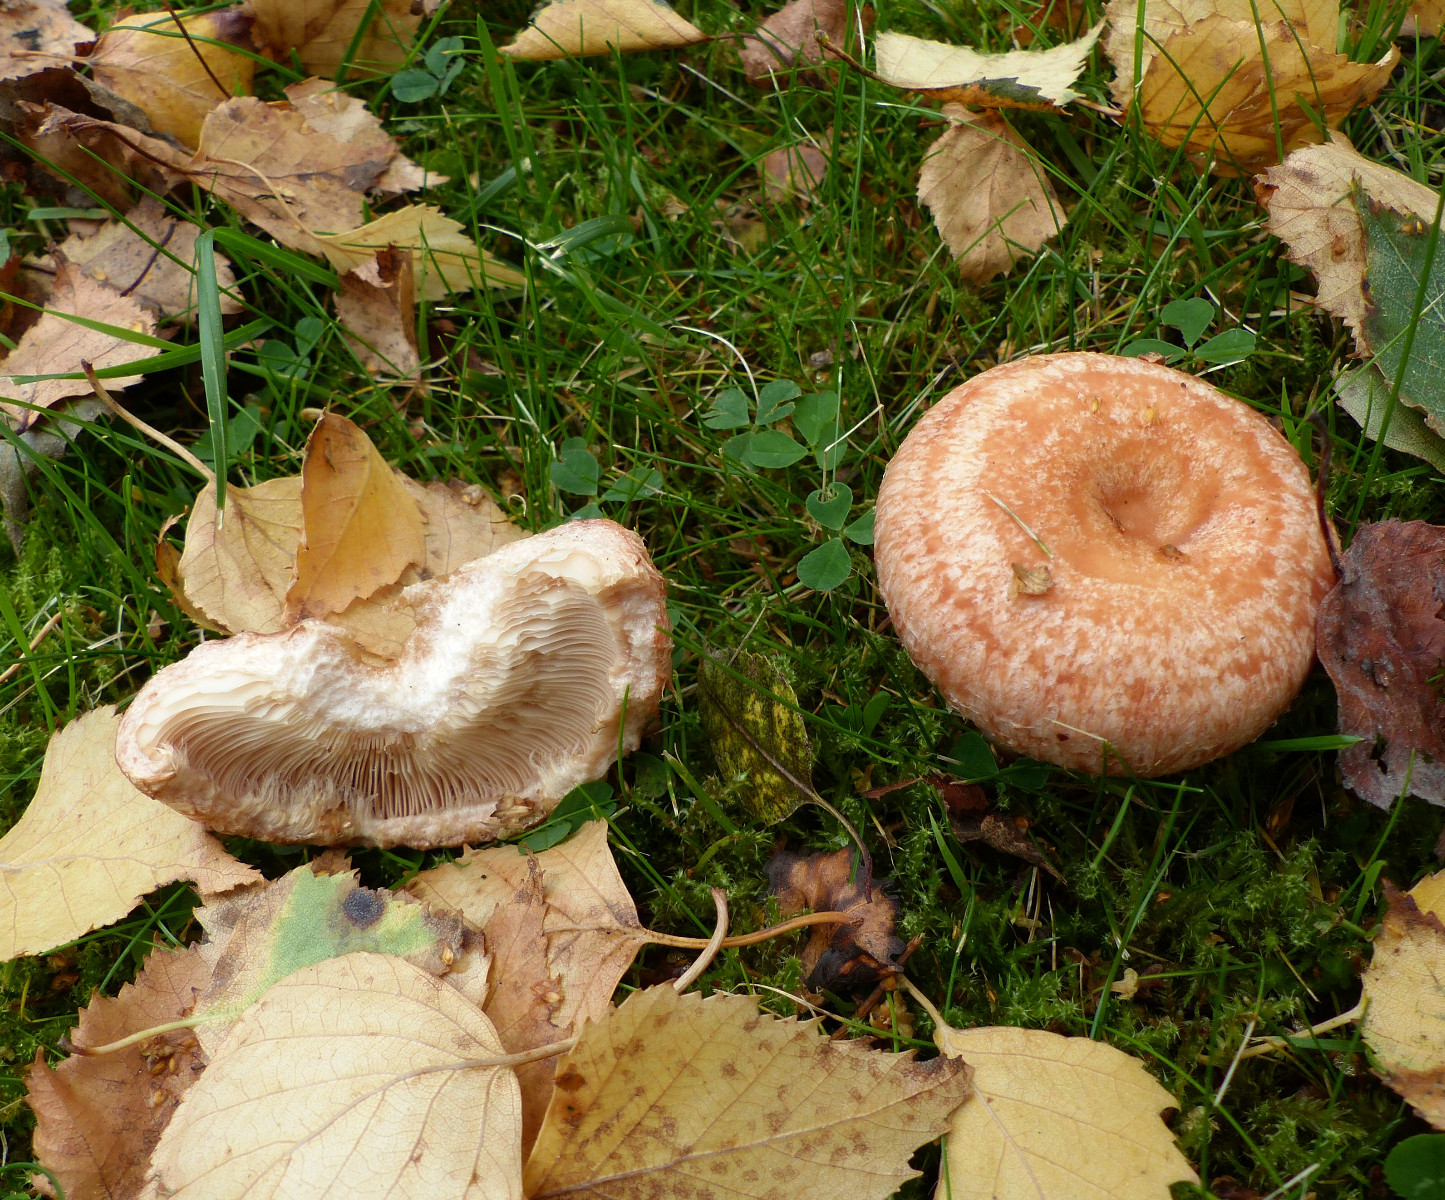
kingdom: Fungi
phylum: Basidiomycota
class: Agaricomycetes
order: Russulales
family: Russulaceae
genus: Lactarius
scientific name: Lactarius torminosus
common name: skægget mælkehat
